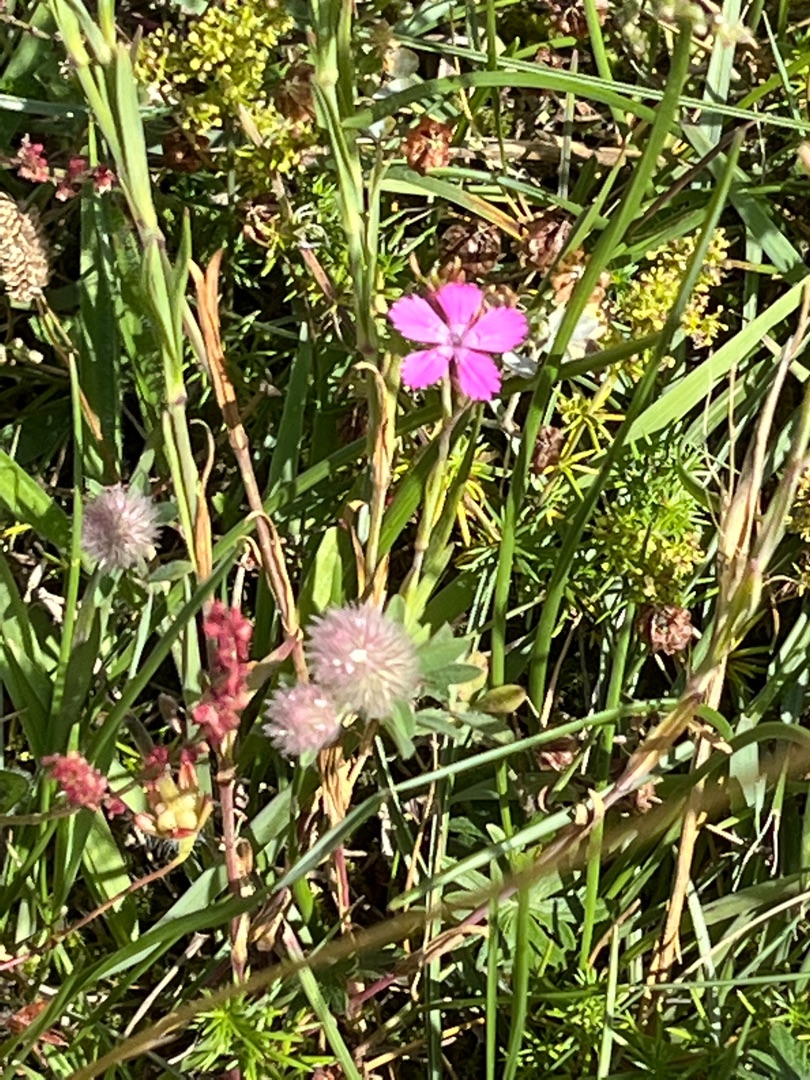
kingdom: Plantae
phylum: Tracheophyta
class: Magnoliopsida
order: Caryophyllales
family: Caryophyllaceae
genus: Dianthus
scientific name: Dianthus deltoides
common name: Bakke-nellike
